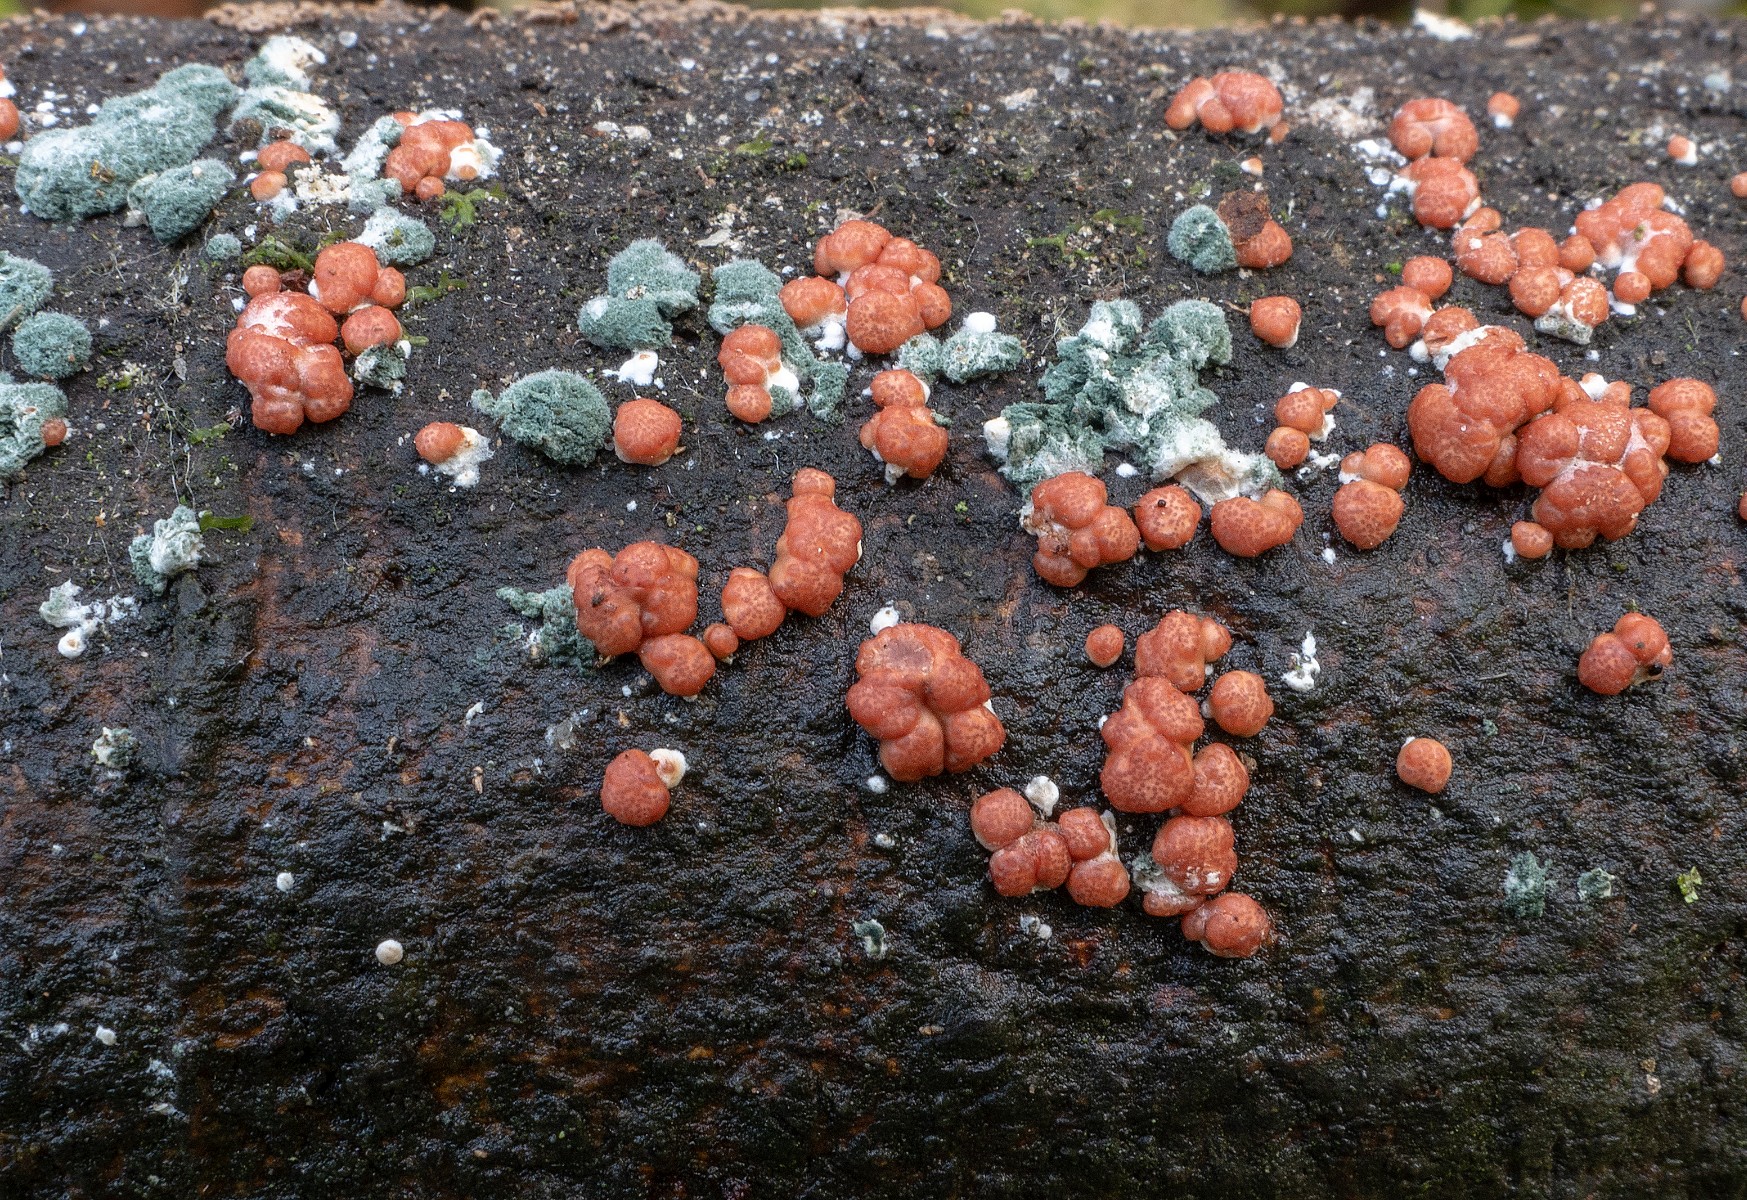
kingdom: Fungi
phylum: Ascomycota
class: Sordariomycetes
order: Hypocreales
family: Hypocreaceae
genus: Trichoderma
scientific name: Trichoderma estonicum
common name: ruslæder-kødkerne
